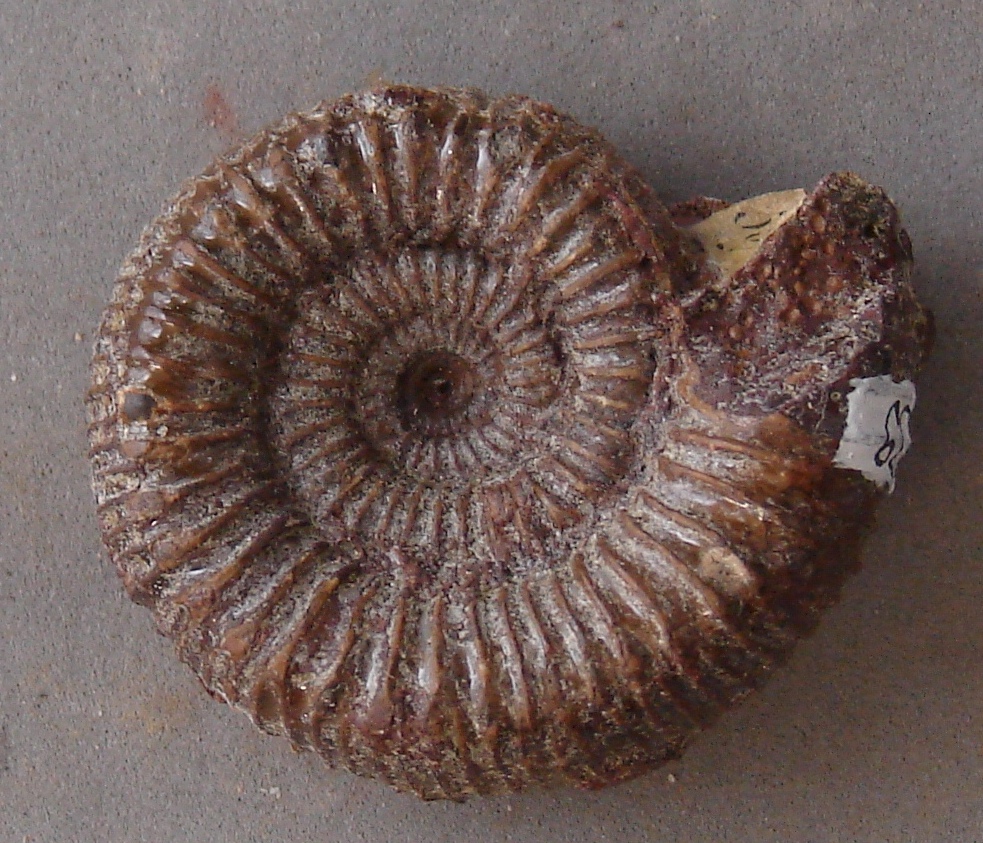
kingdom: Animalia
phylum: Mollusca
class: Cephalopoda
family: Coeloceratidae
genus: Coeloceras
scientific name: Coeloceras
